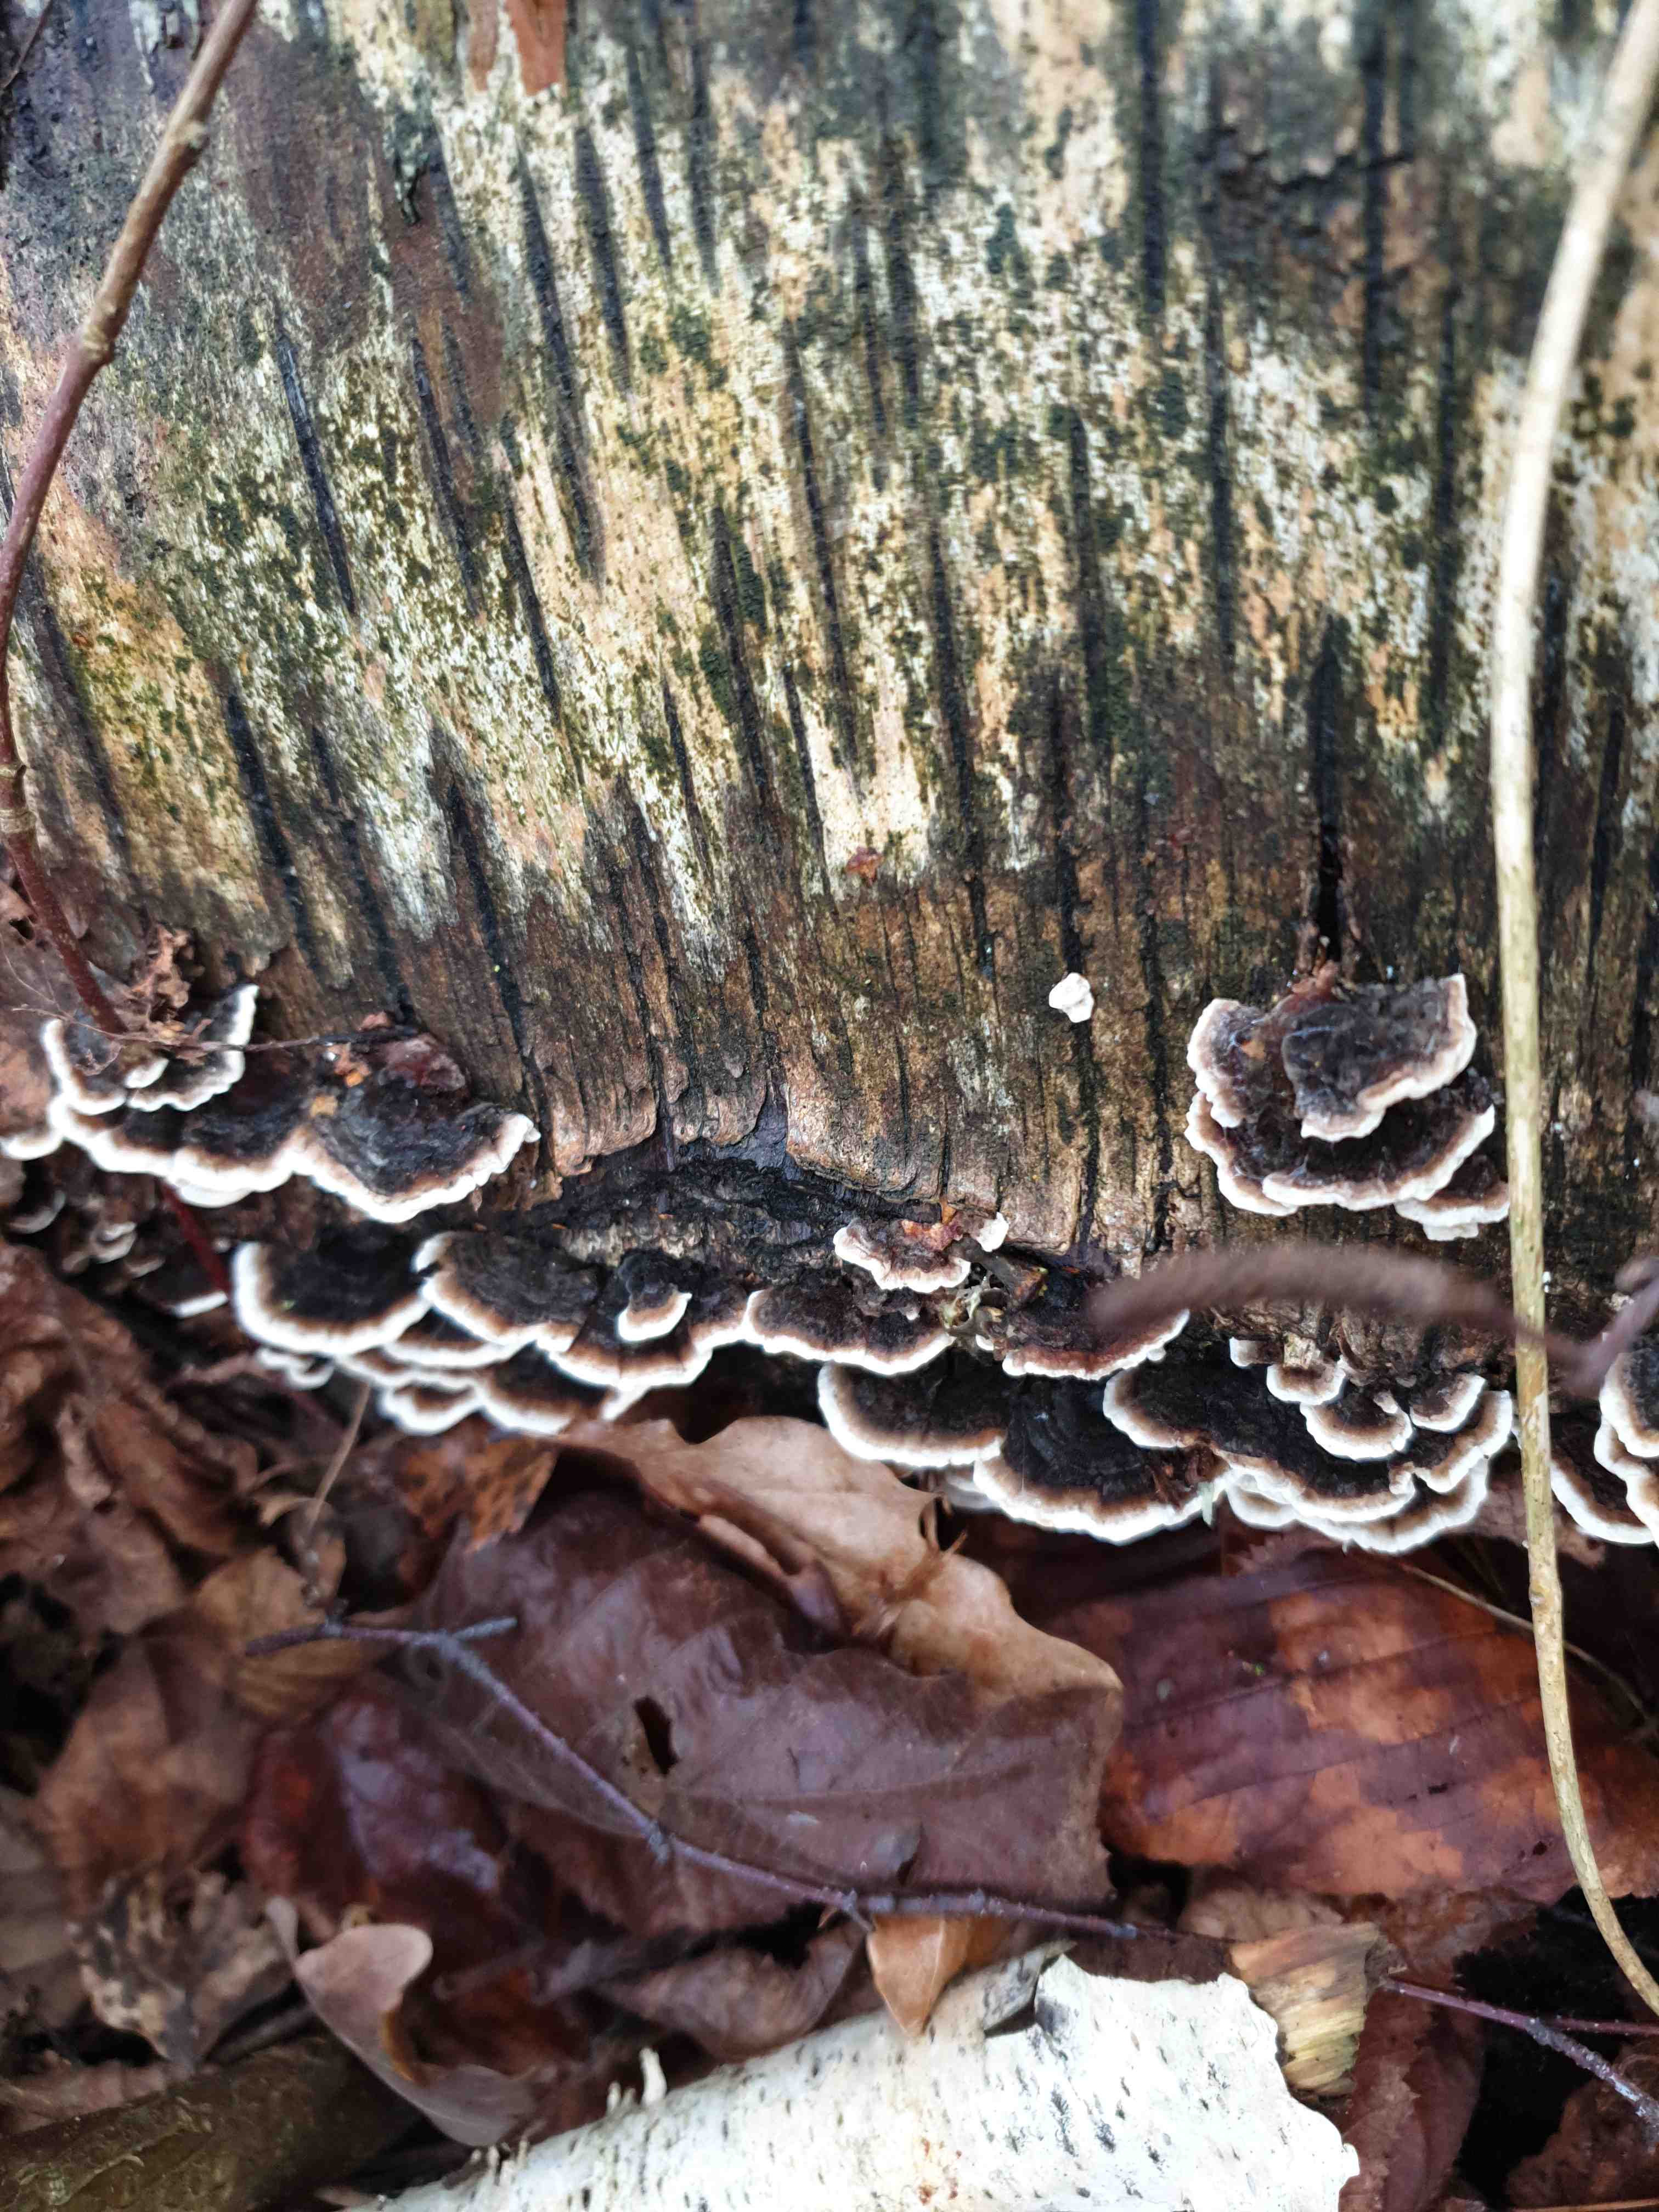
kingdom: Fungi
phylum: Basidiomycota
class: Agaricomycetes
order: Polyporales
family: Polyporaceae
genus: Trametes
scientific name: Trametes versicolor
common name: broget læderporesvamp
